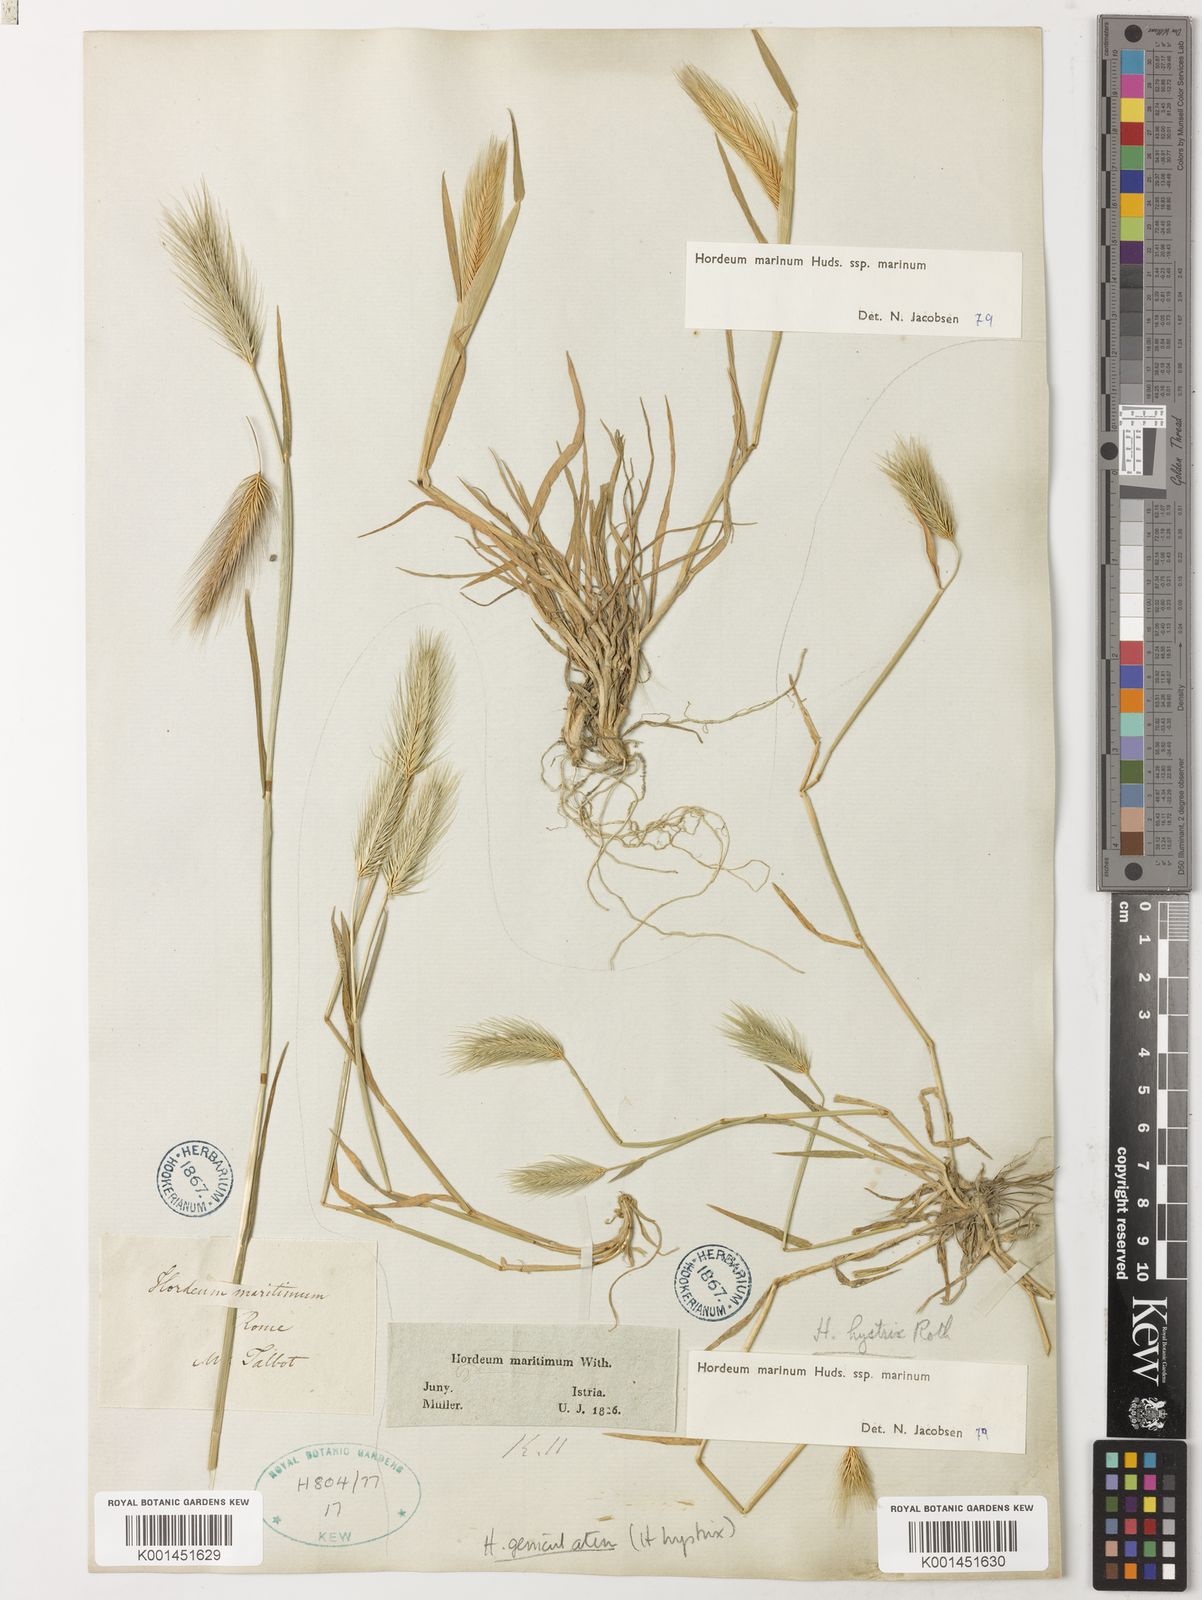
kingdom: Plantae
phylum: Tracheophyta
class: Liliopsida
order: Poales
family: Poaceae
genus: Hordeum
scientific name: Hordeum marinum
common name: Sea barley
